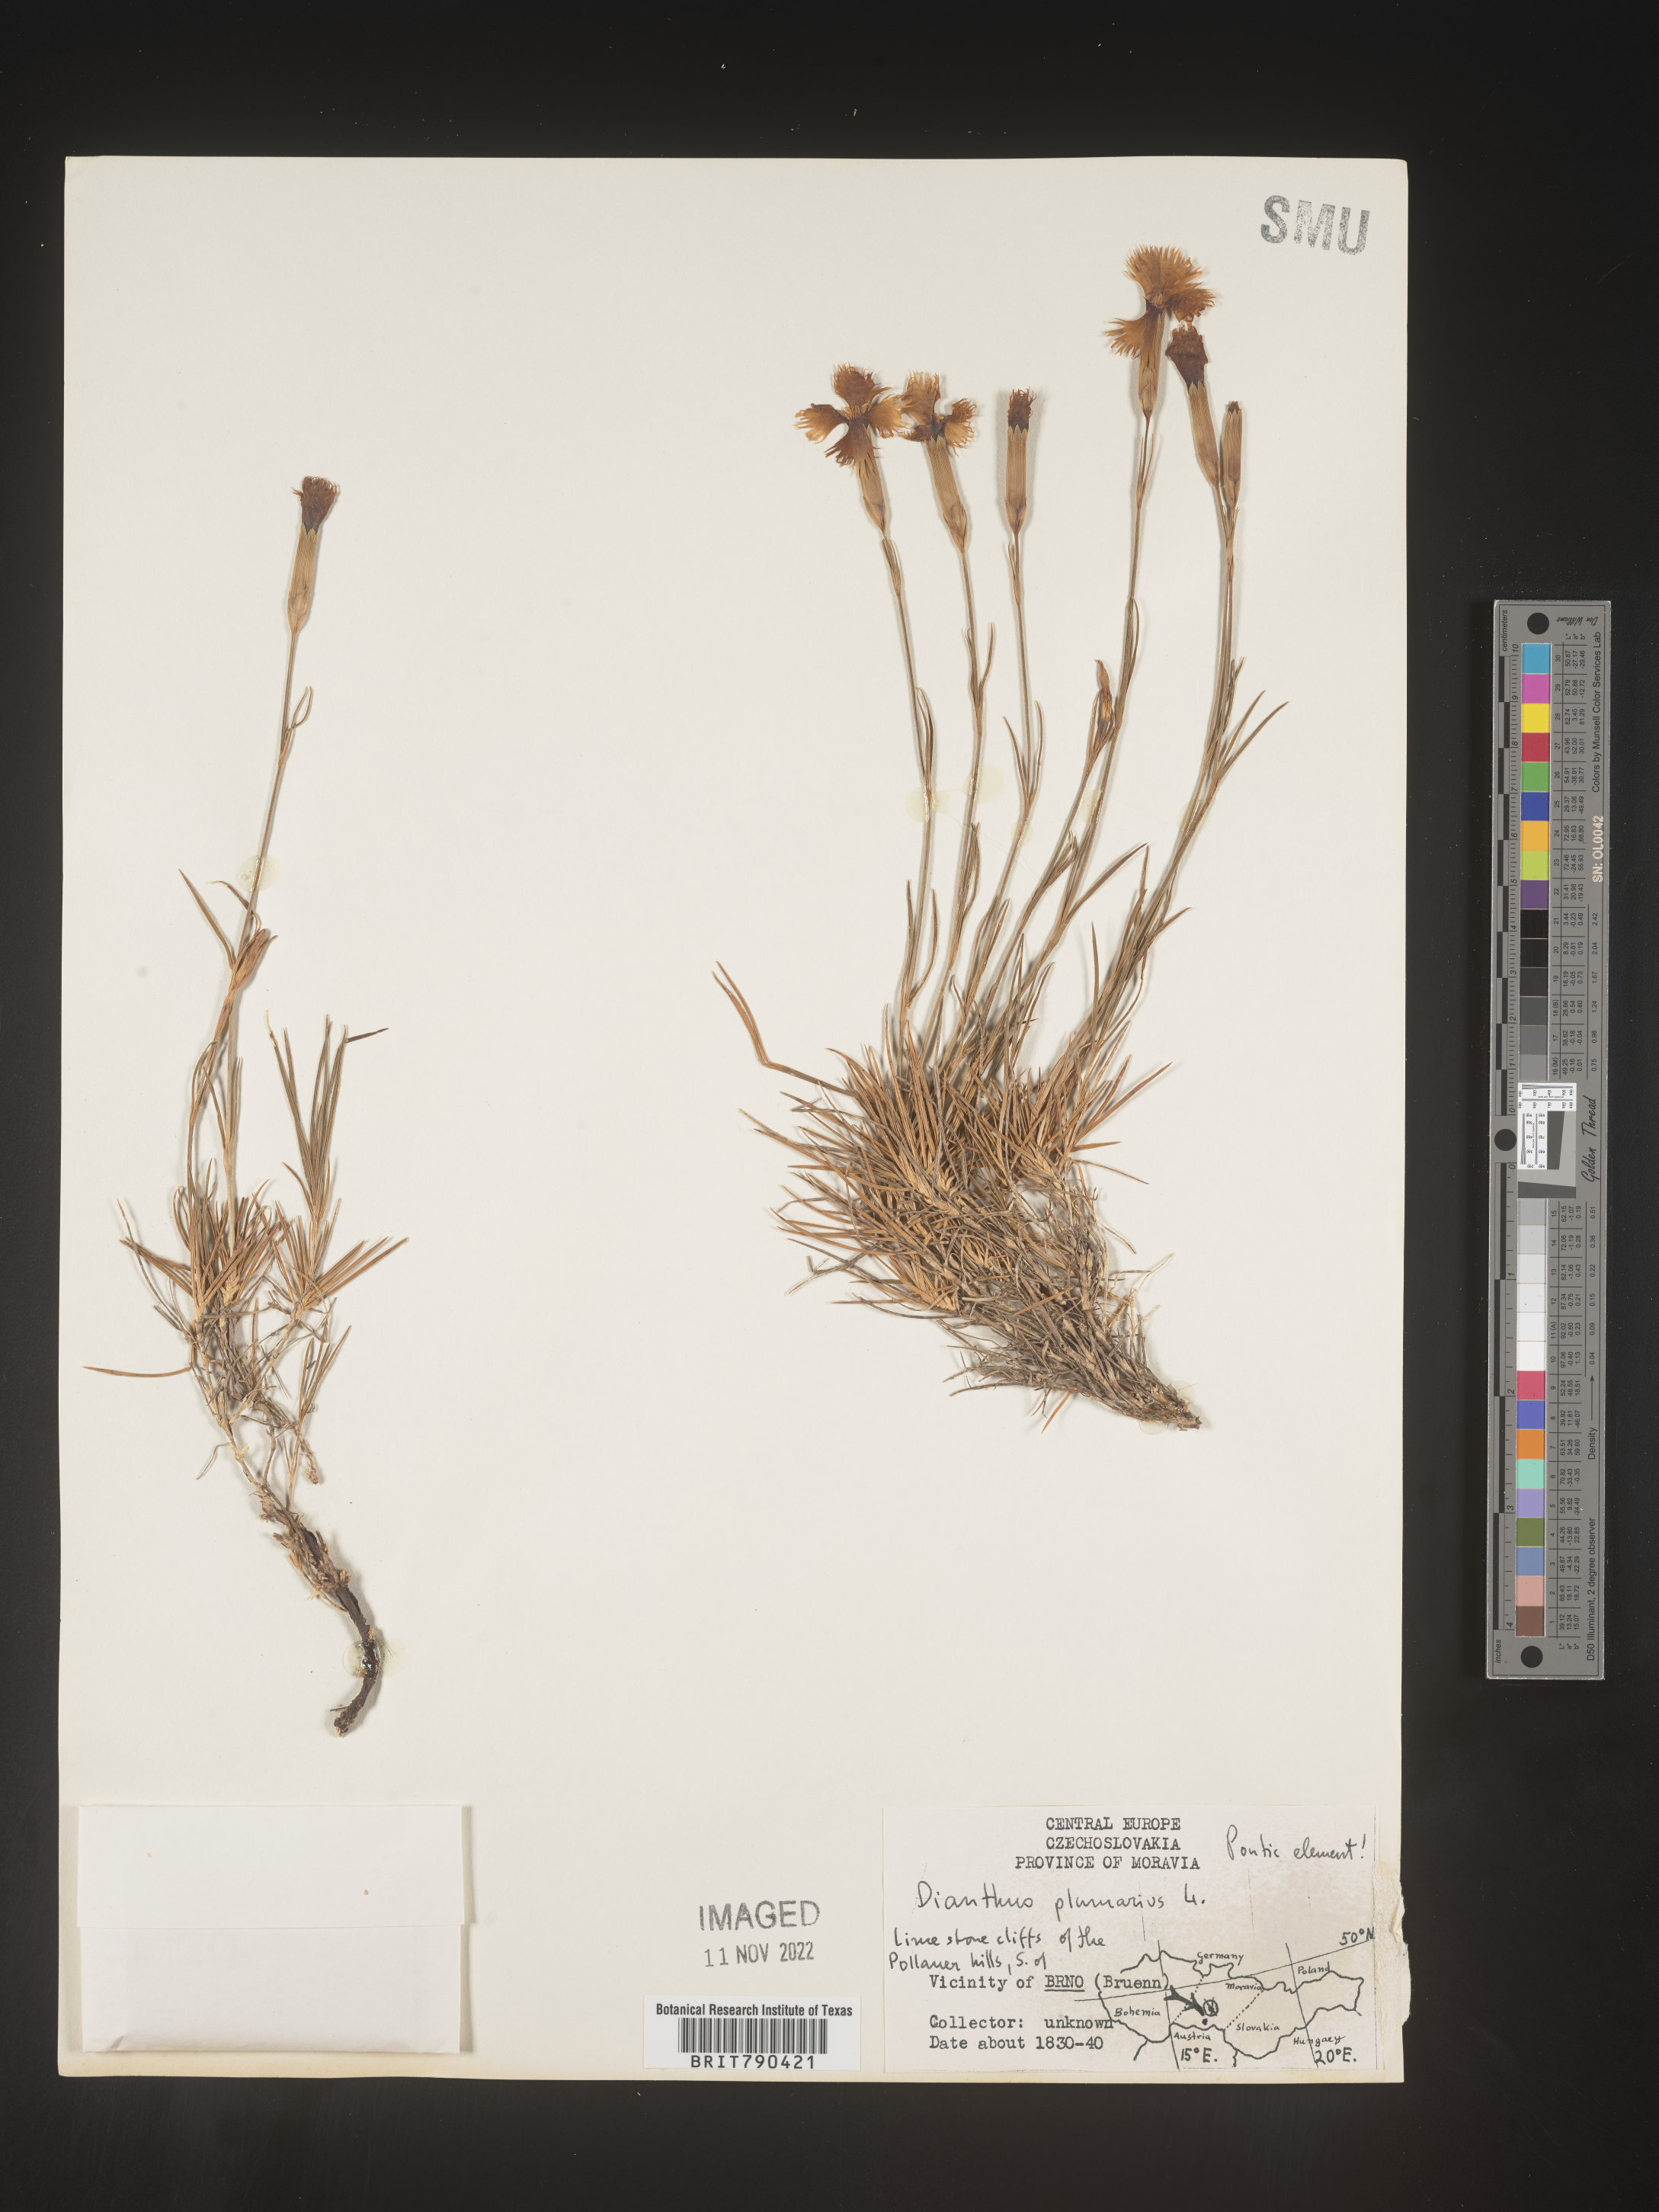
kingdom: Plantae
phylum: Tracheophyta
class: Magnoliopsida
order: Caryophyllales
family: Caryophyllaceae
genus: Dianthus
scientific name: Dianthus
